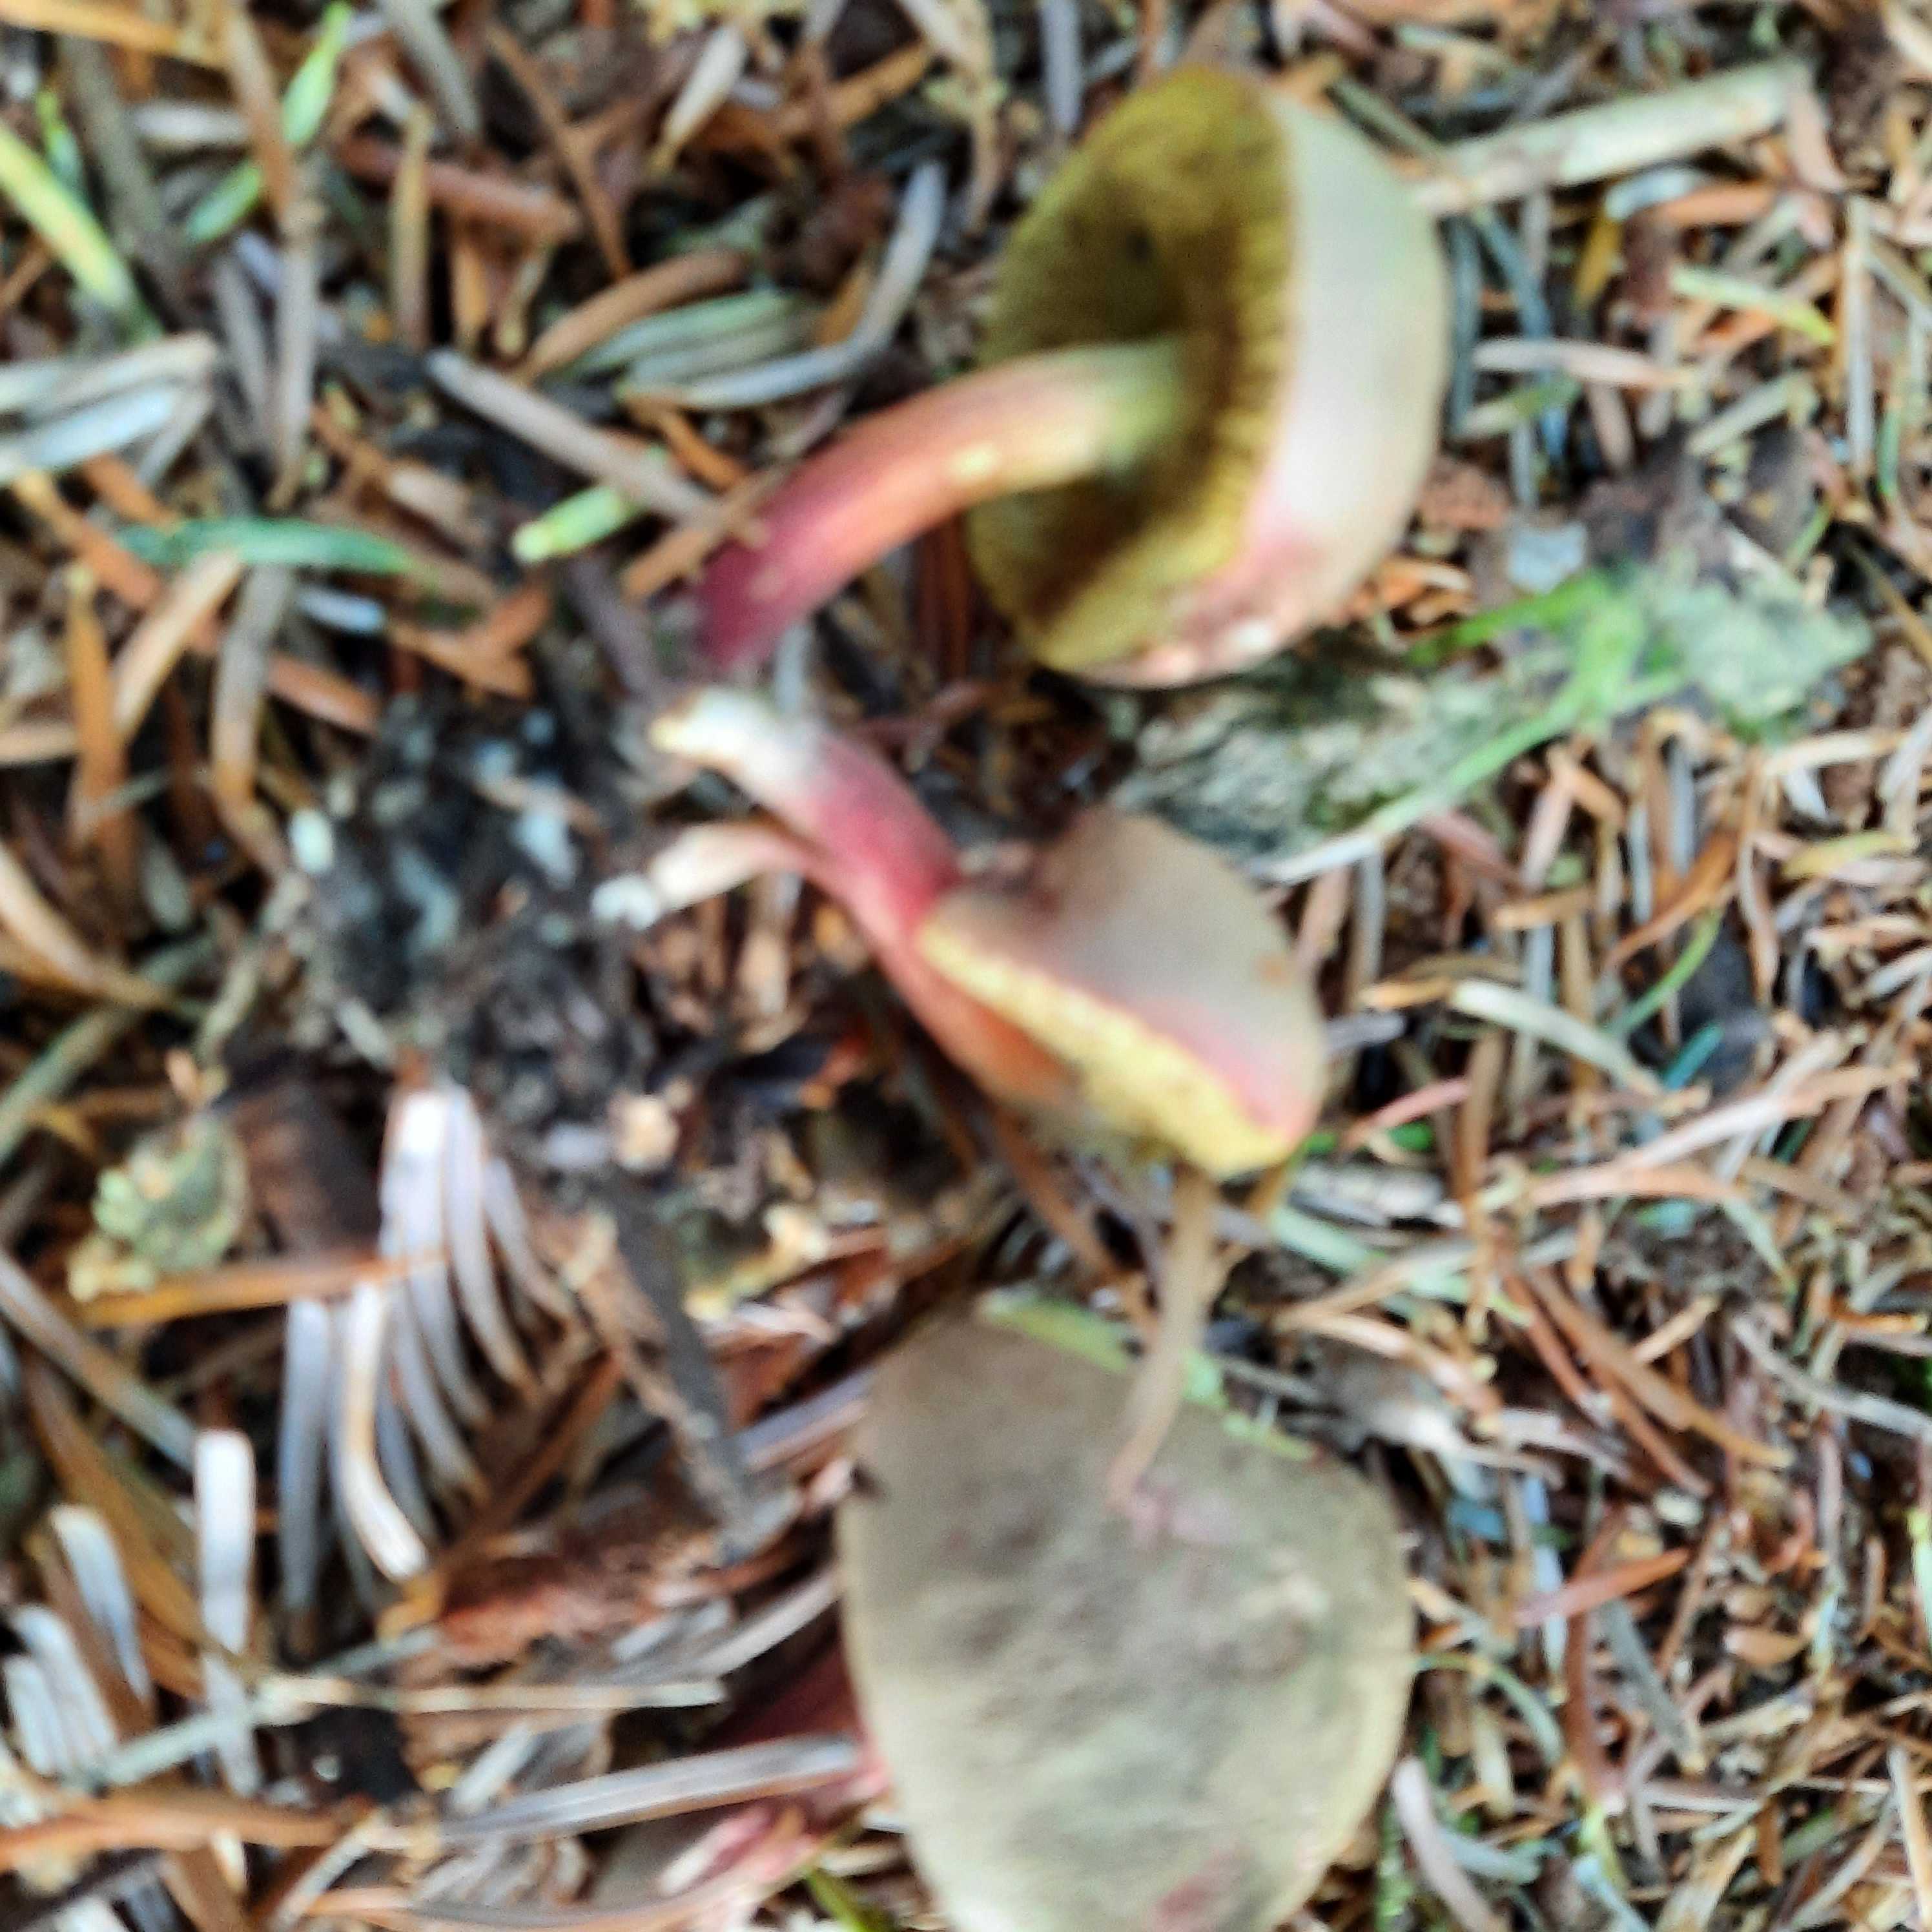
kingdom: Fungi
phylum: Basidiomycota
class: Agaricomycetes
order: Boletales
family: Boletaceae
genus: Xerocomellus
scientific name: Xerocomellus chrysenteron
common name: rødsprukken rørhat
